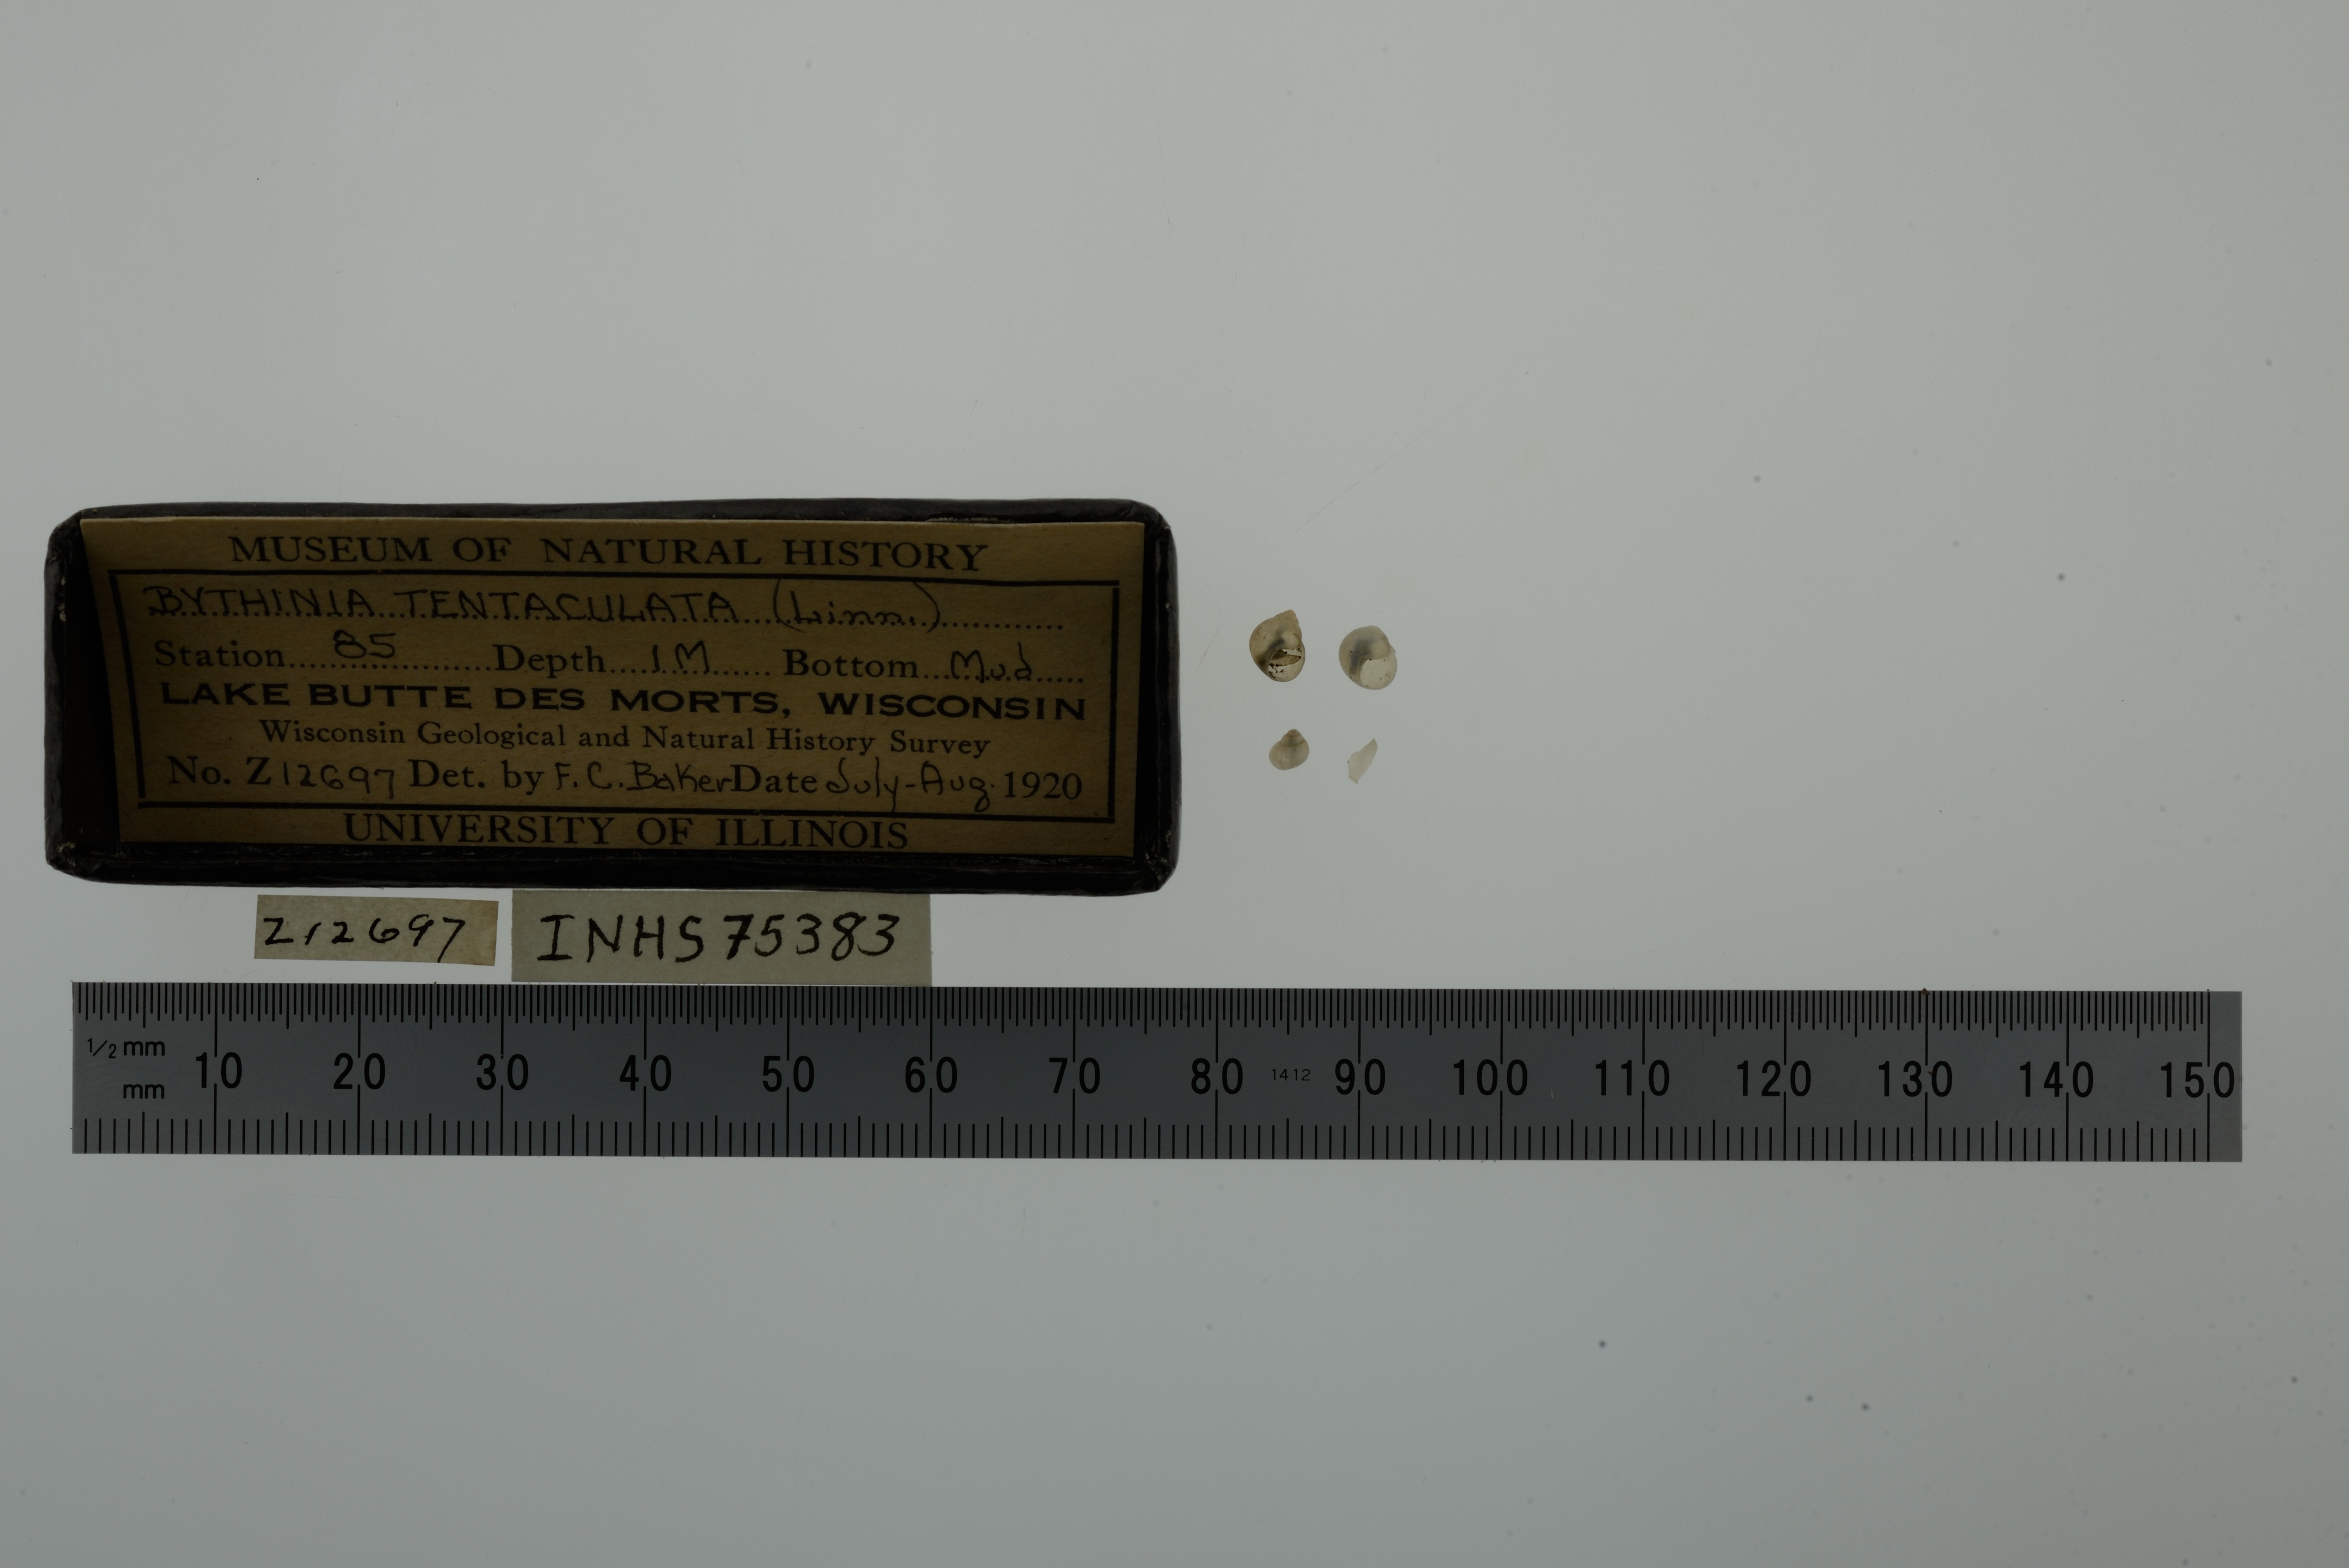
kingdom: Animalia
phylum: Mollusca
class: Gastropoda
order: Littorinimorpha
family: Bithyniidae
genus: Bithynia
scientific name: Bithynia tentaculata
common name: Common bithynia
